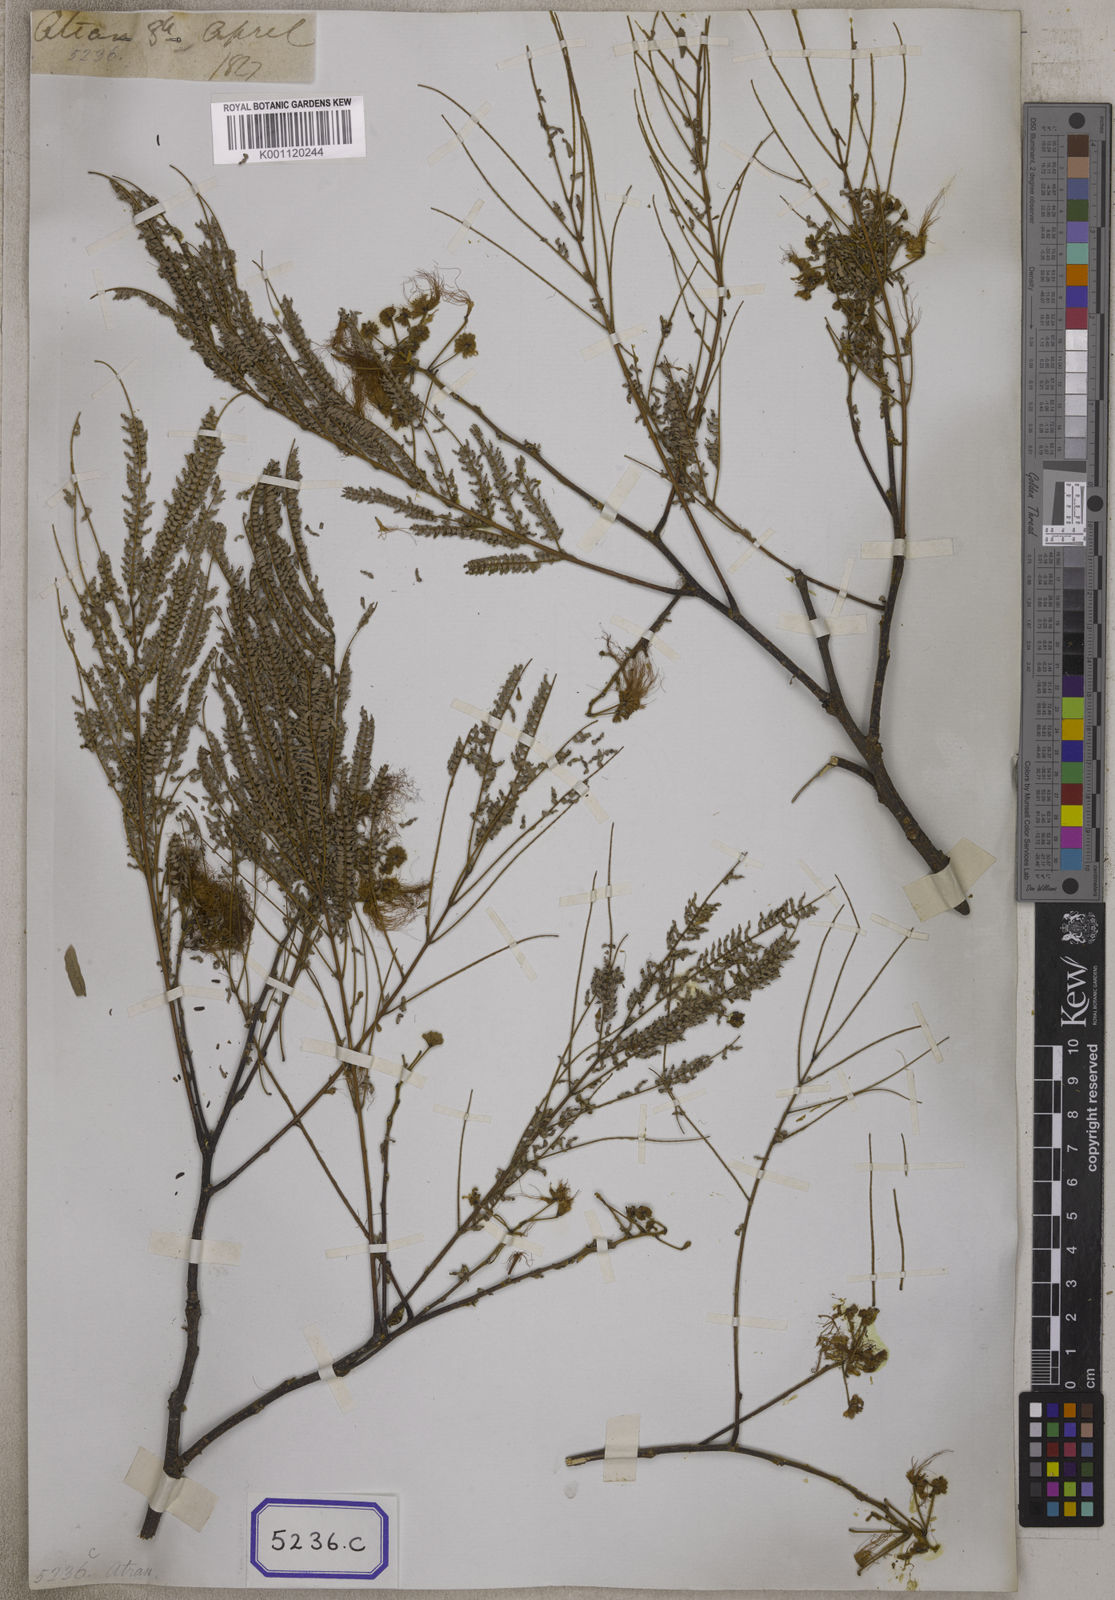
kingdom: Plantae
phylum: Tracheophyta
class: Magnoliopsida
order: Fabales
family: Fabaceae
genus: Albizia
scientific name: Albizia chinensis
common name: Chinese albizia
